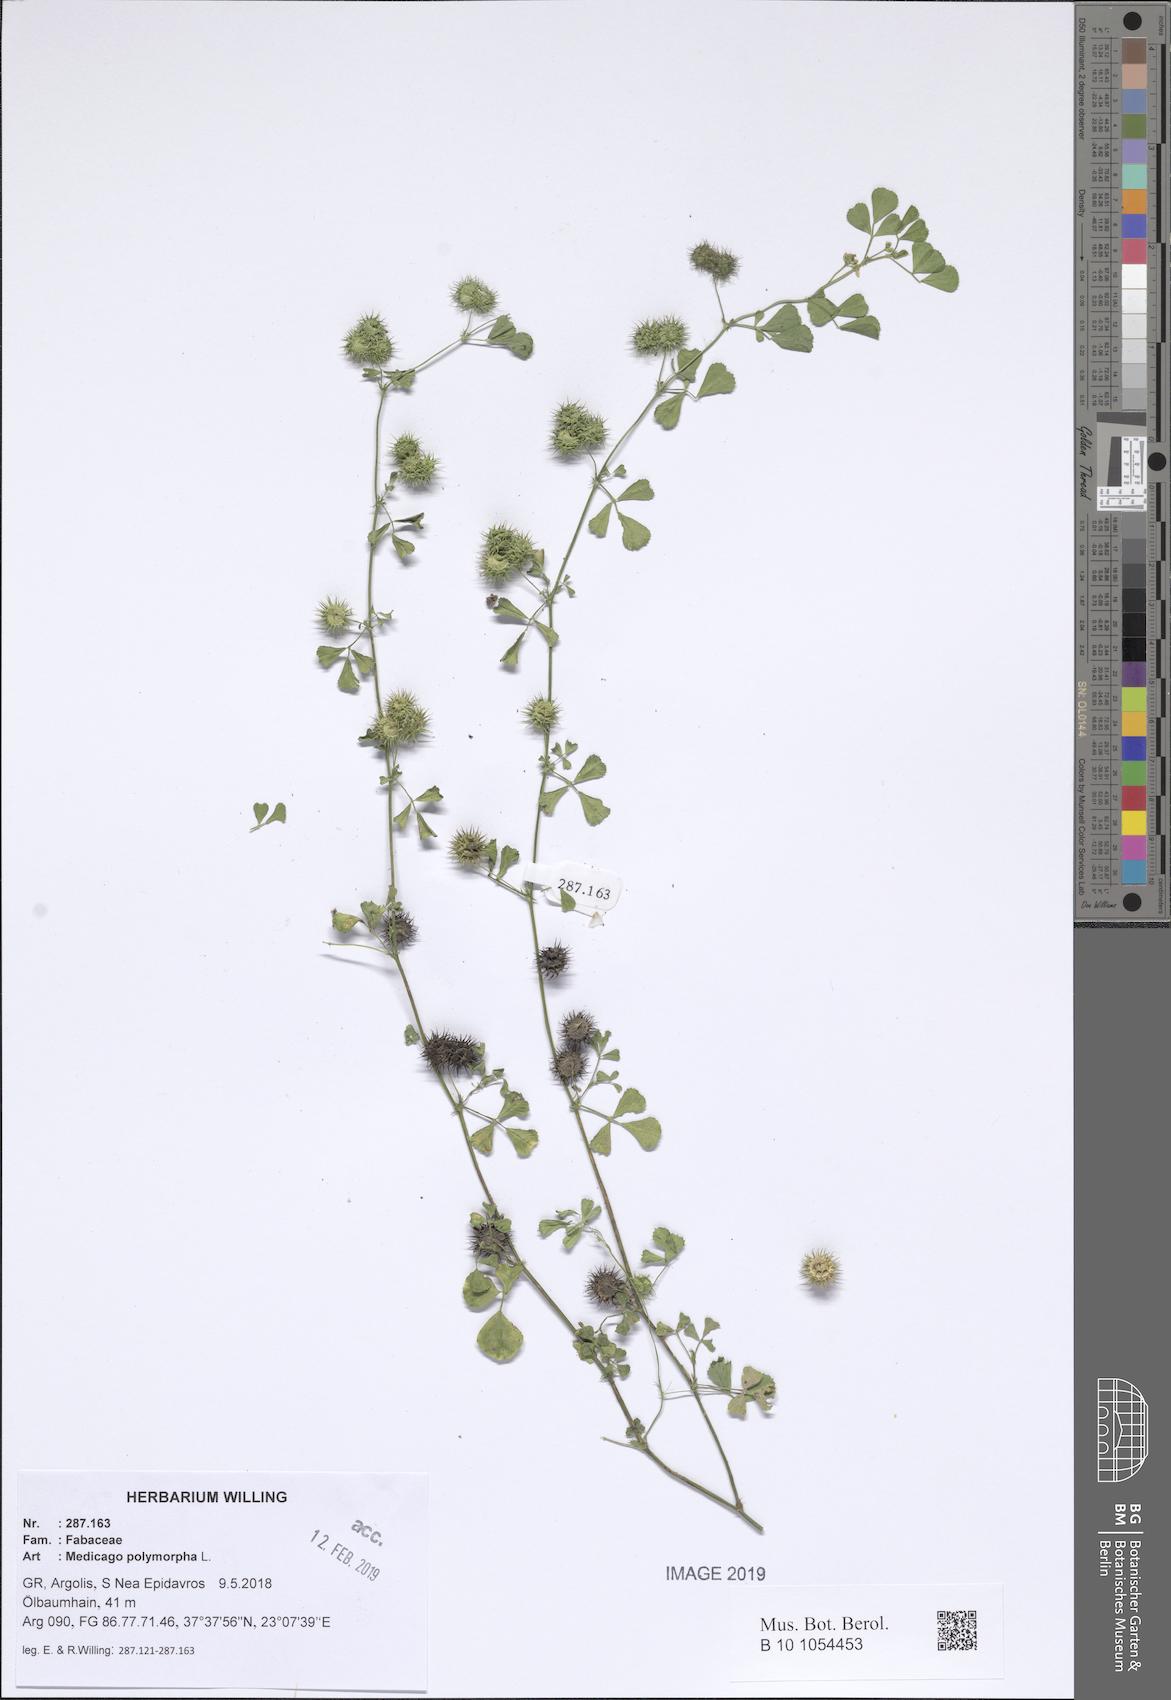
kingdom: Plantae
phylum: Tracheophyta
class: Magnoliopsida
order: Fabales
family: Fabaceae
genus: Medicago
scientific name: Medicago polymorpha
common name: Burclover
